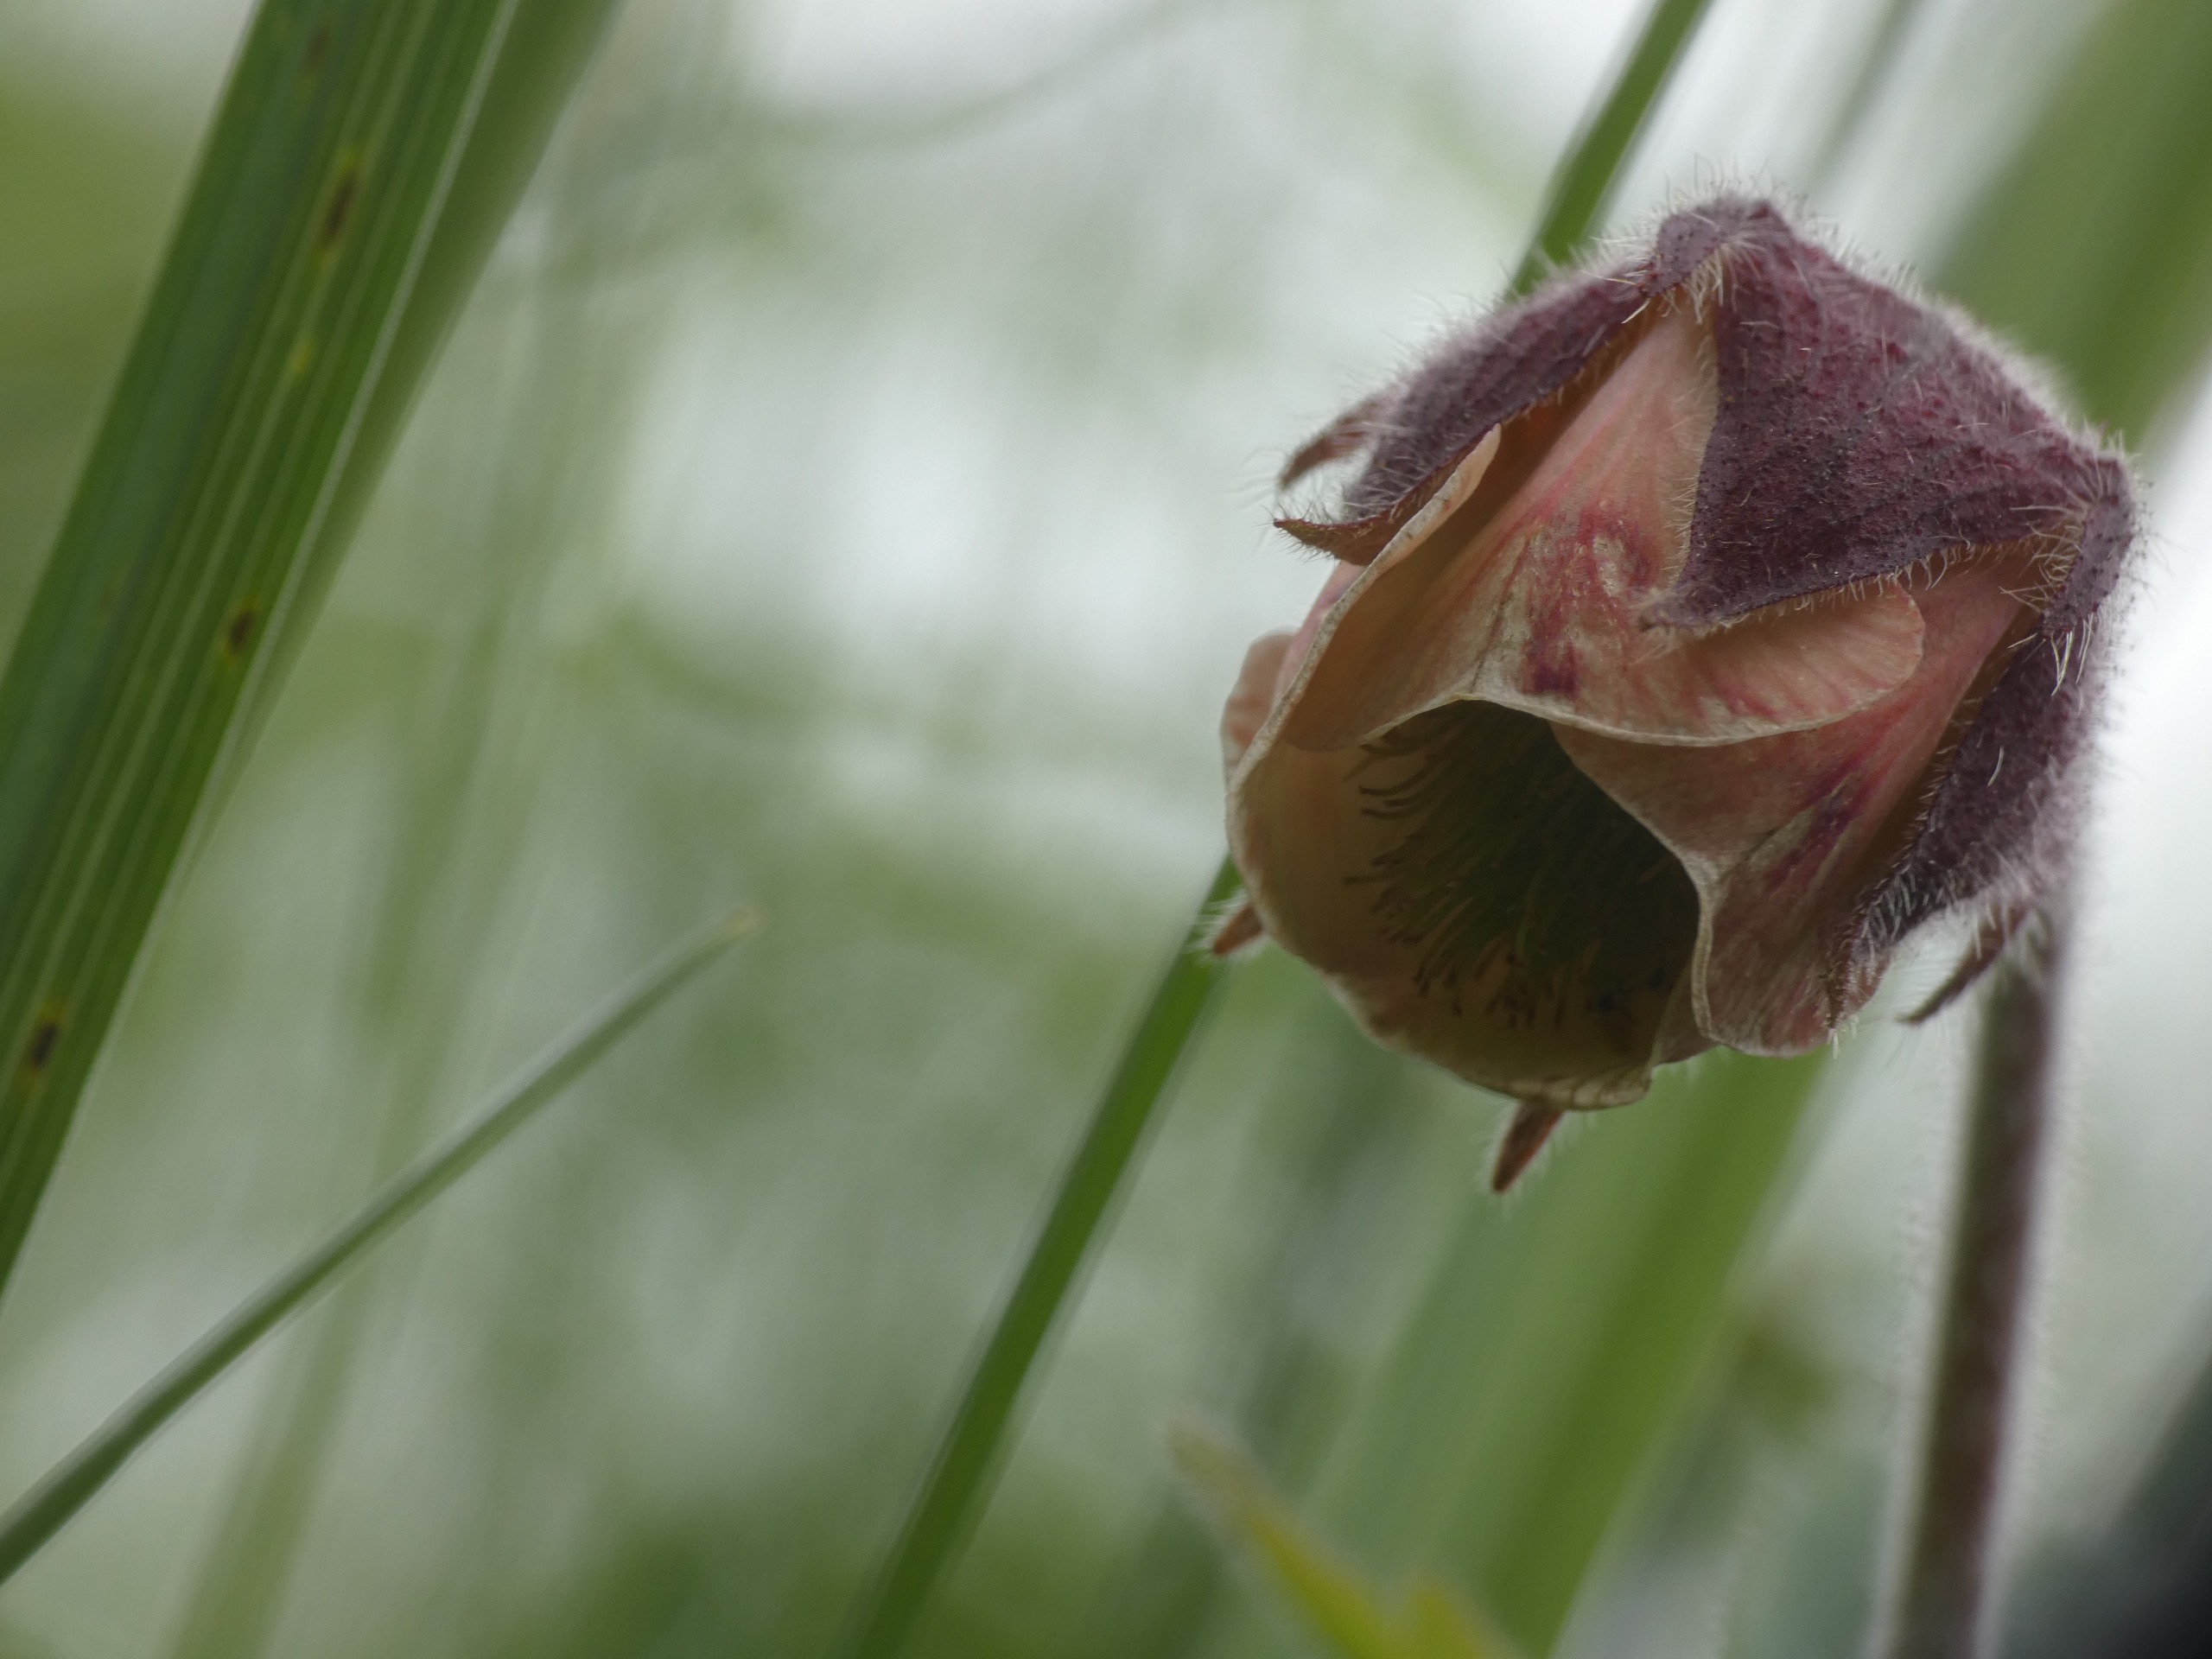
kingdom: Plantae
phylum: Tracheophyta
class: Magnoliopsida
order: Rosales
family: Rosaceae
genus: Geum
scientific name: Geum rivale
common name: Eng-nellikerod
